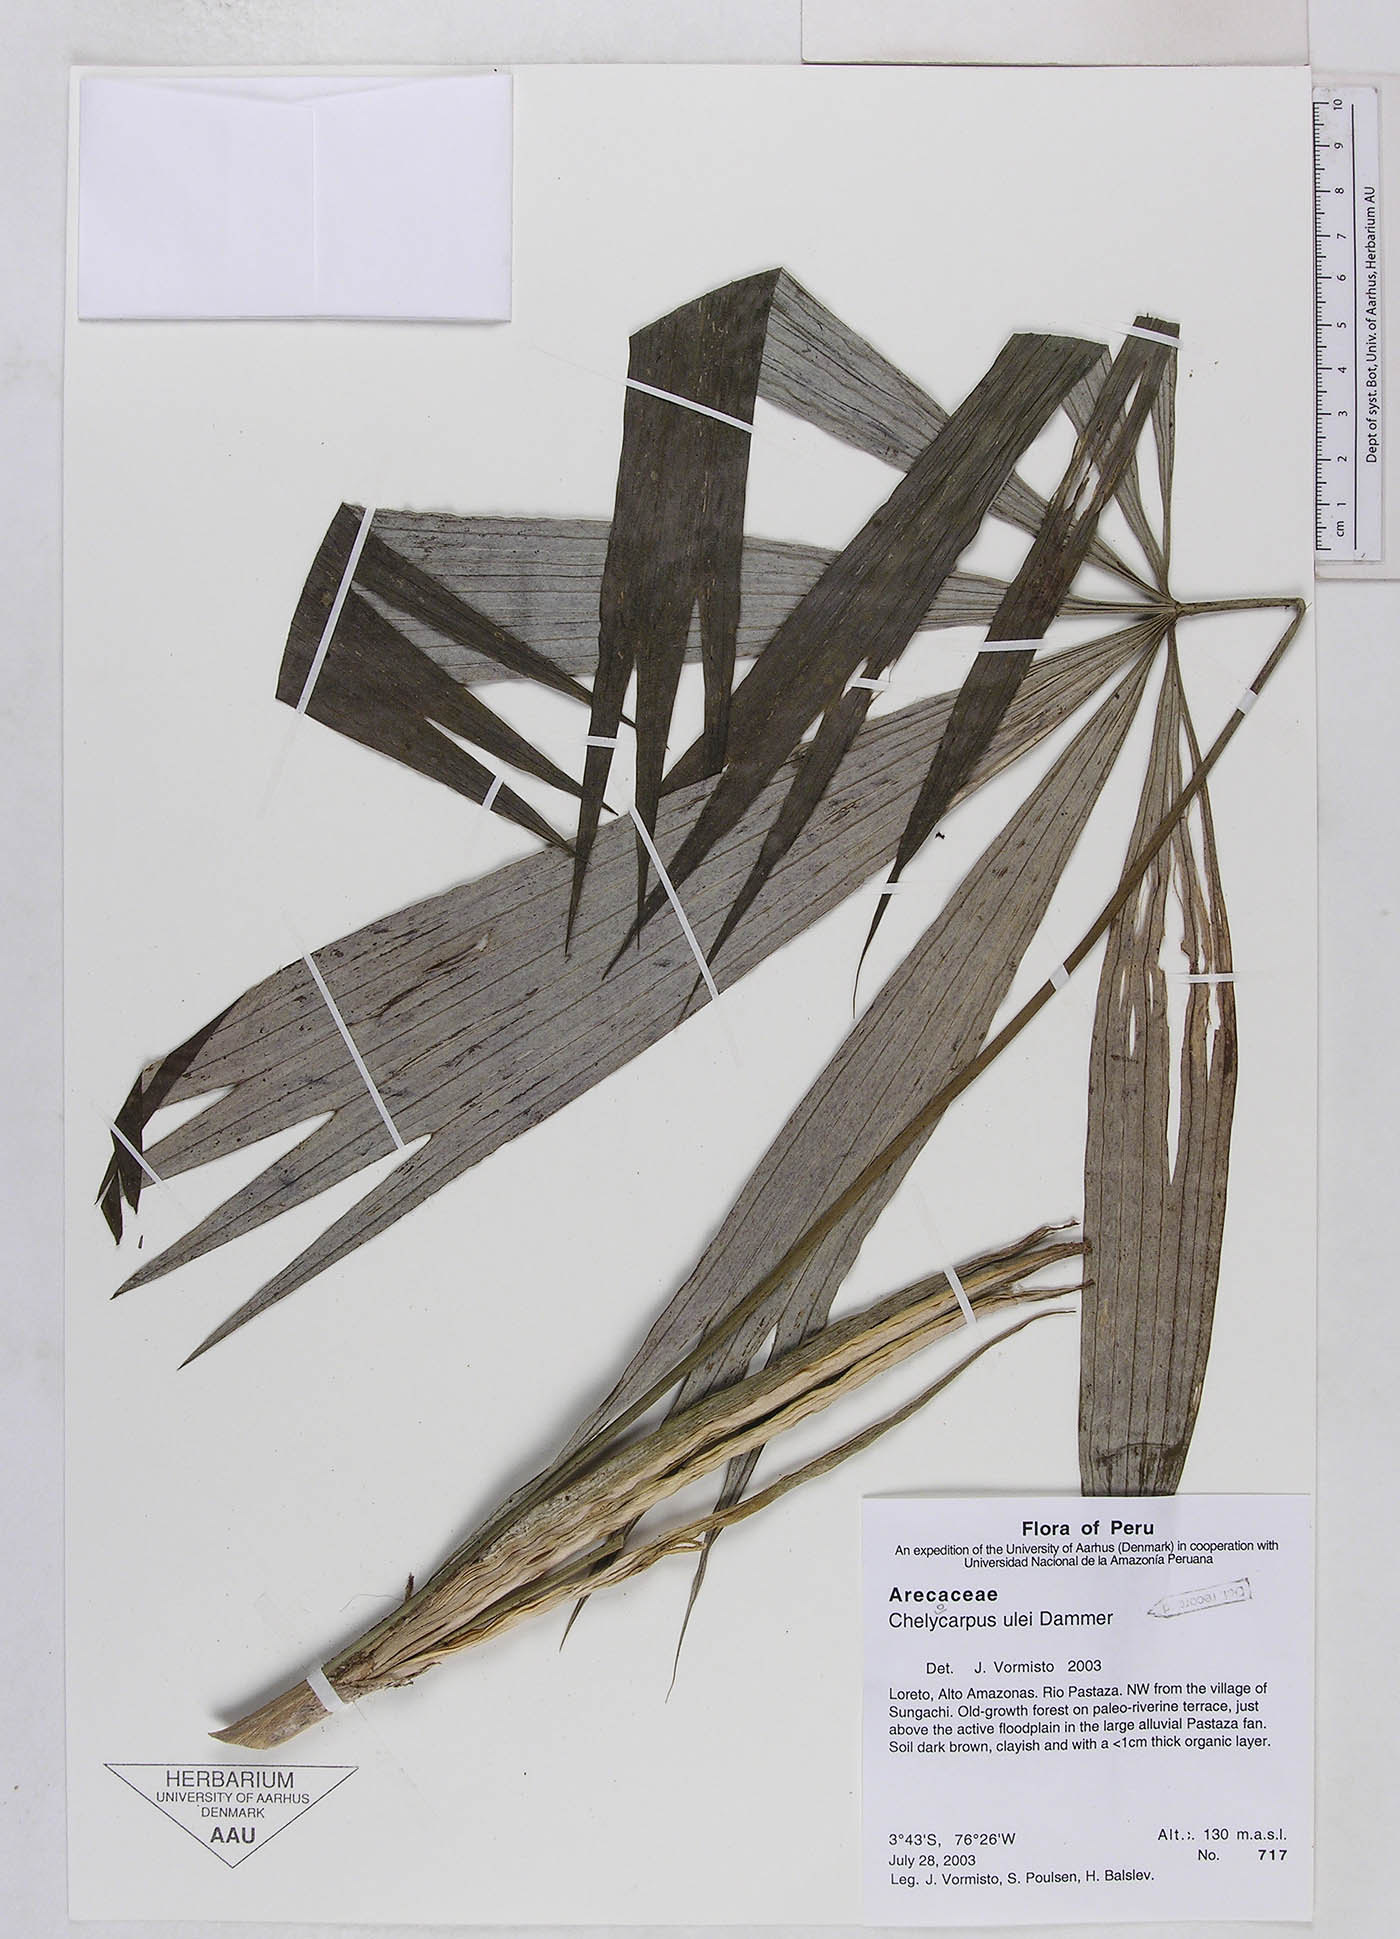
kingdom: Plantae
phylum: Tracheophyta
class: Liliopsida
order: Arecales
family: Arecaceae
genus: Chelyocarpus
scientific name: Chelyocarpus ulei
